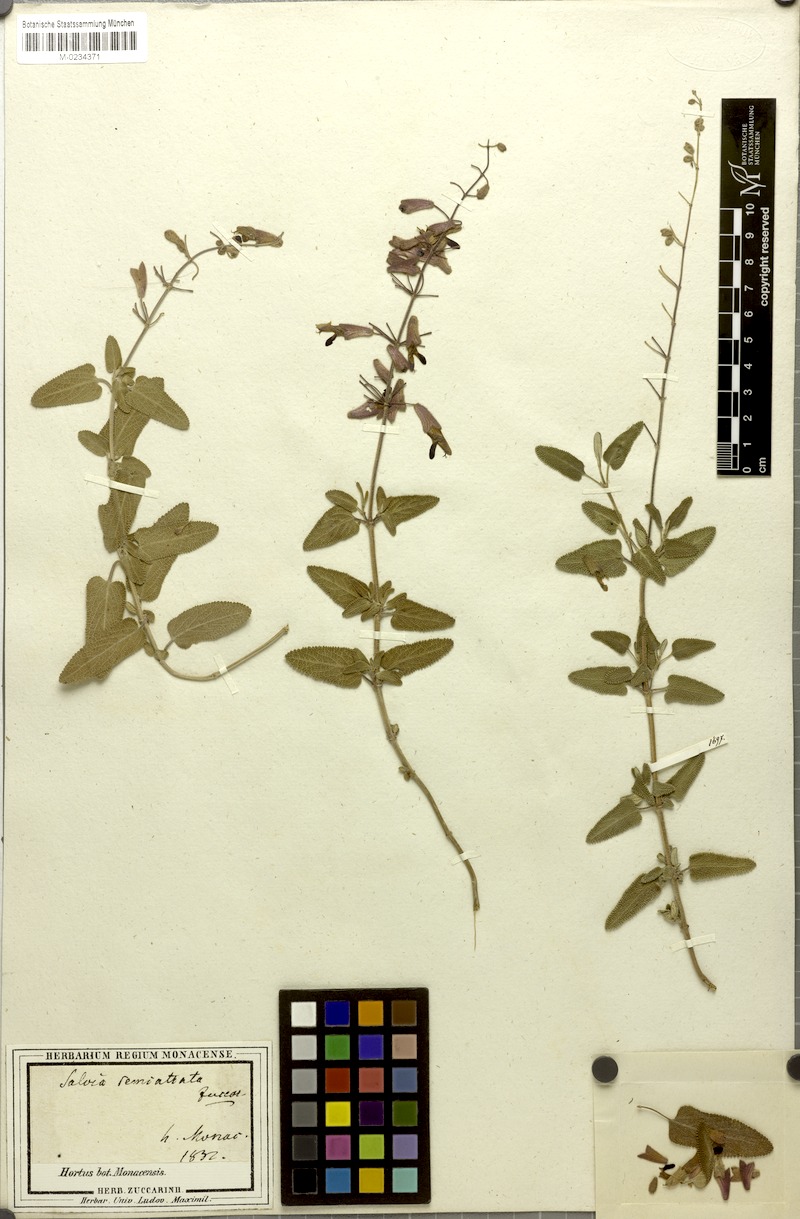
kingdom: Plantae
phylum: Tracheophyta
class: Magnoliopsida
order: Lamiales
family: Lamiaceae
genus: Salvia
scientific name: Salvia semiatrata
